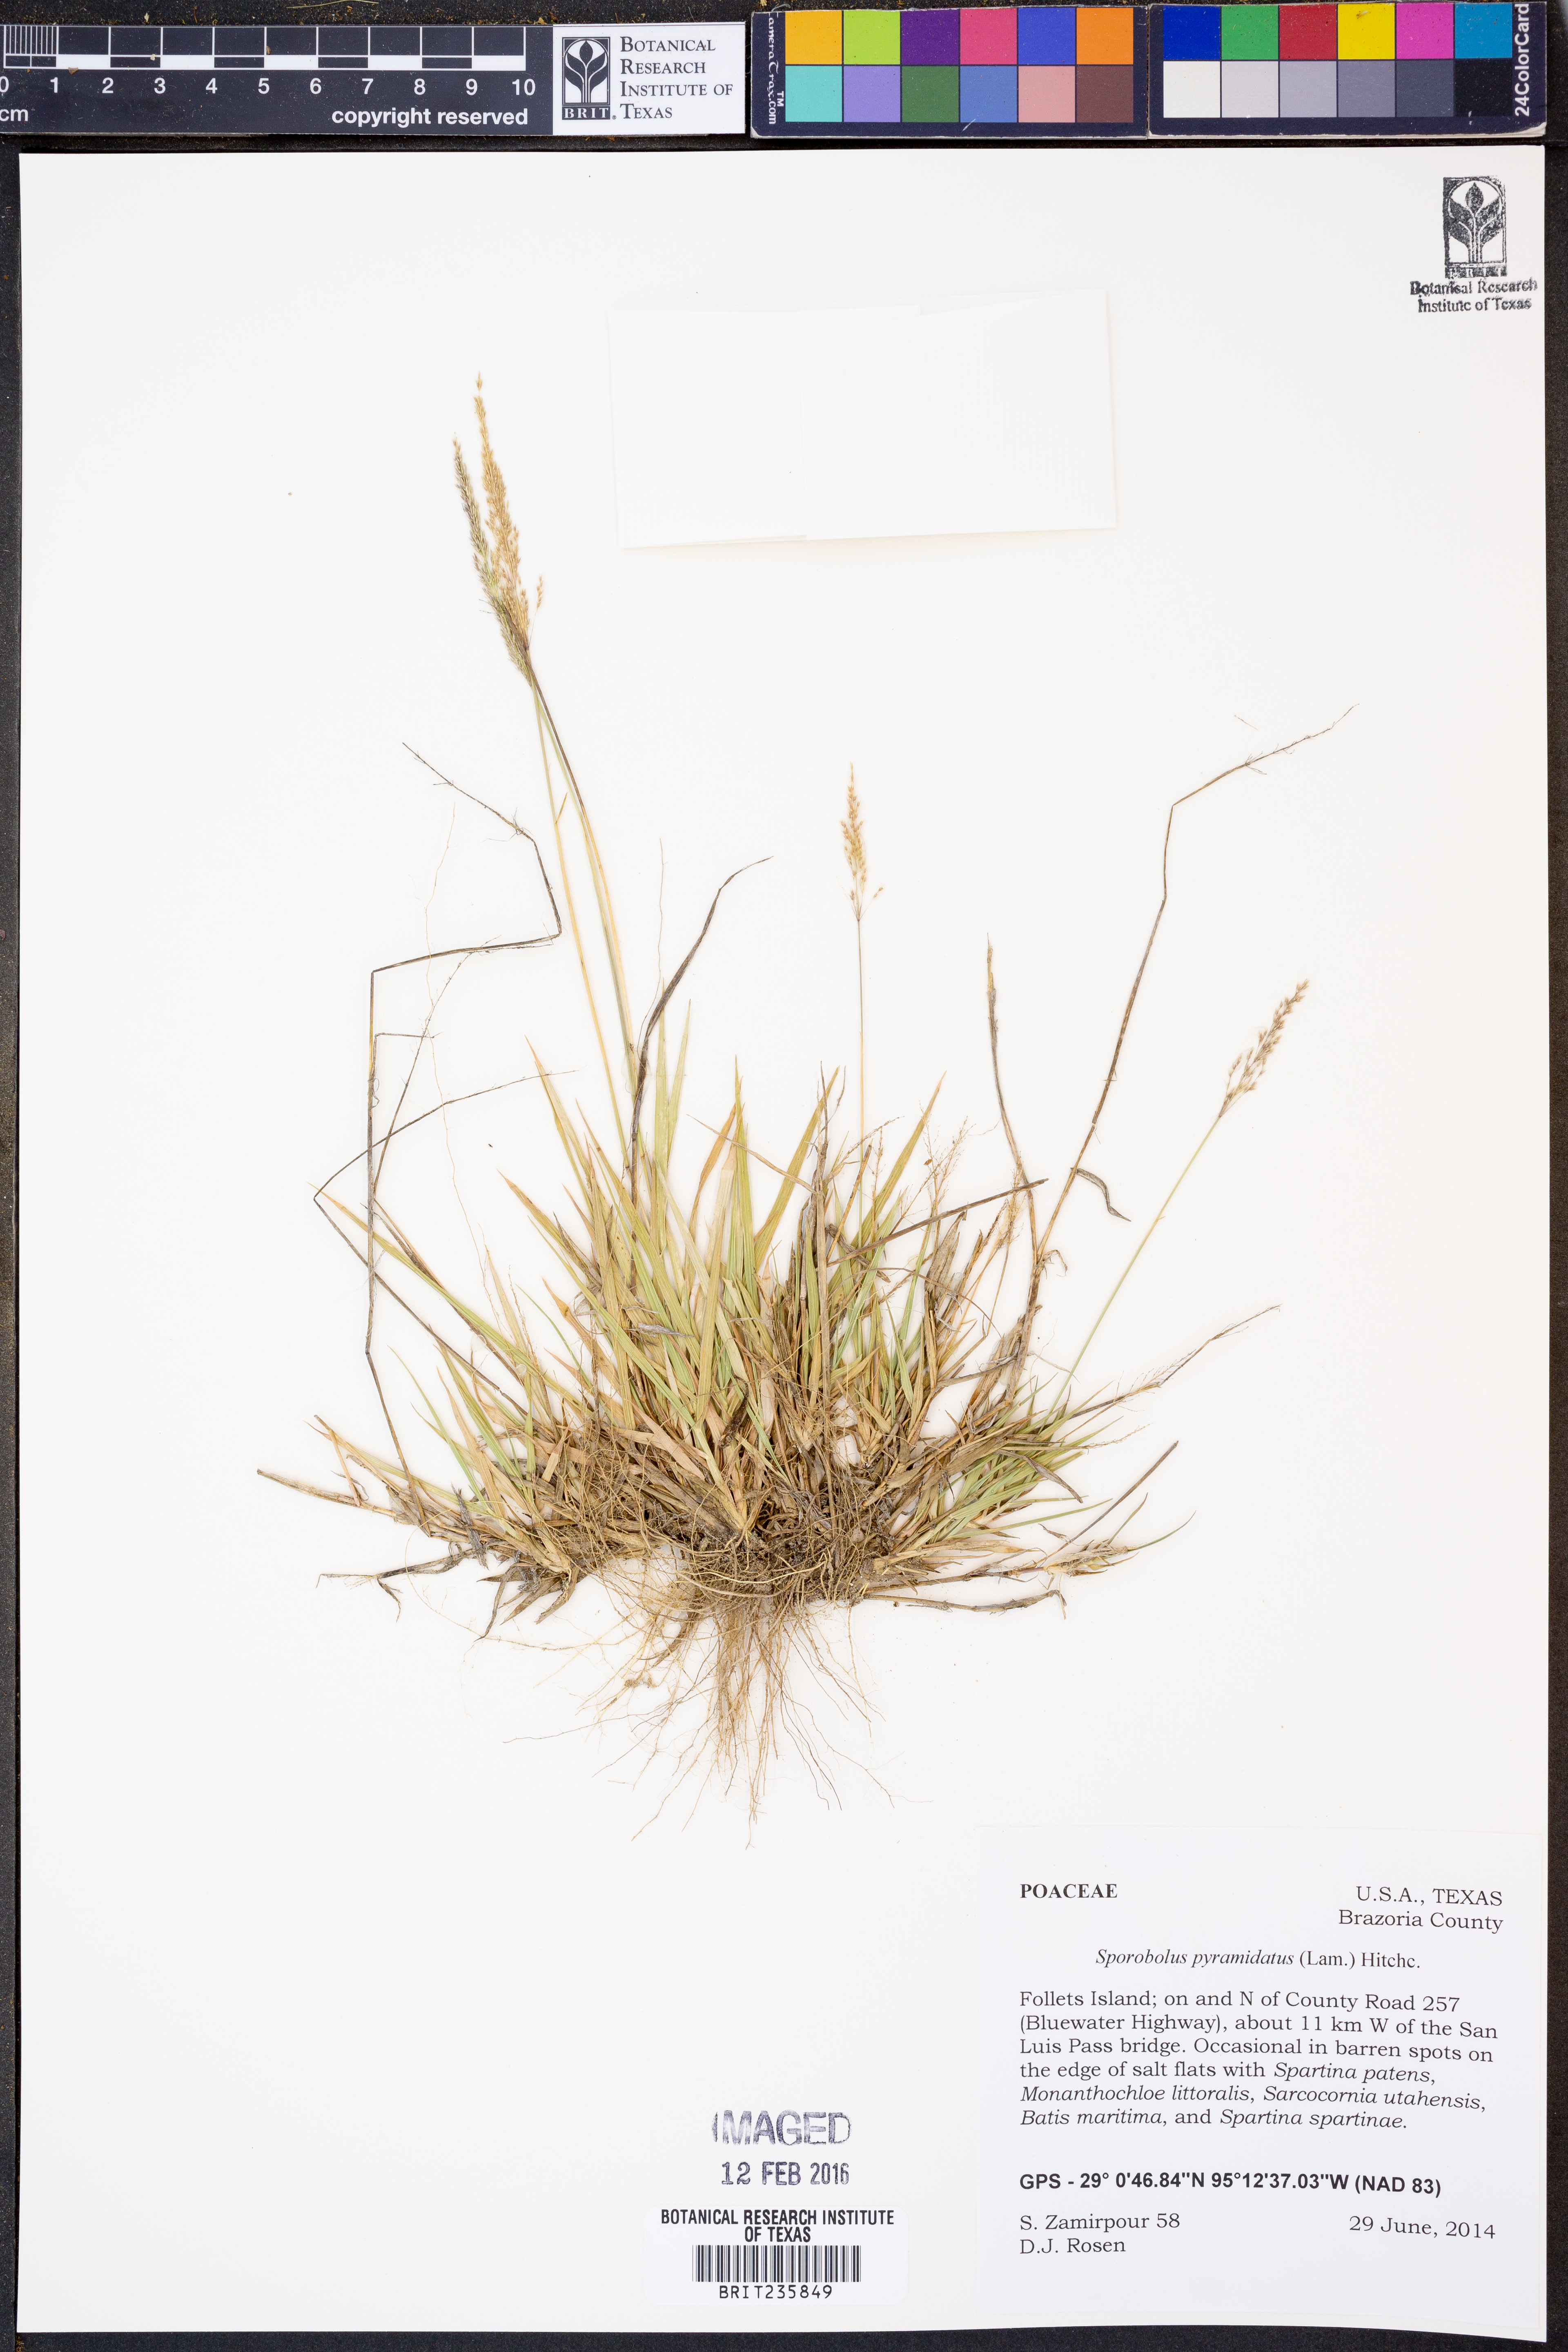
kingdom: Plantae
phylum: Tracheophyta
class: Liliopsida
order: Poales
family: Poaceae
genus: Sporobolus
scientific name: Sporobolus pyramidatus
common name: Whorled dropseed
